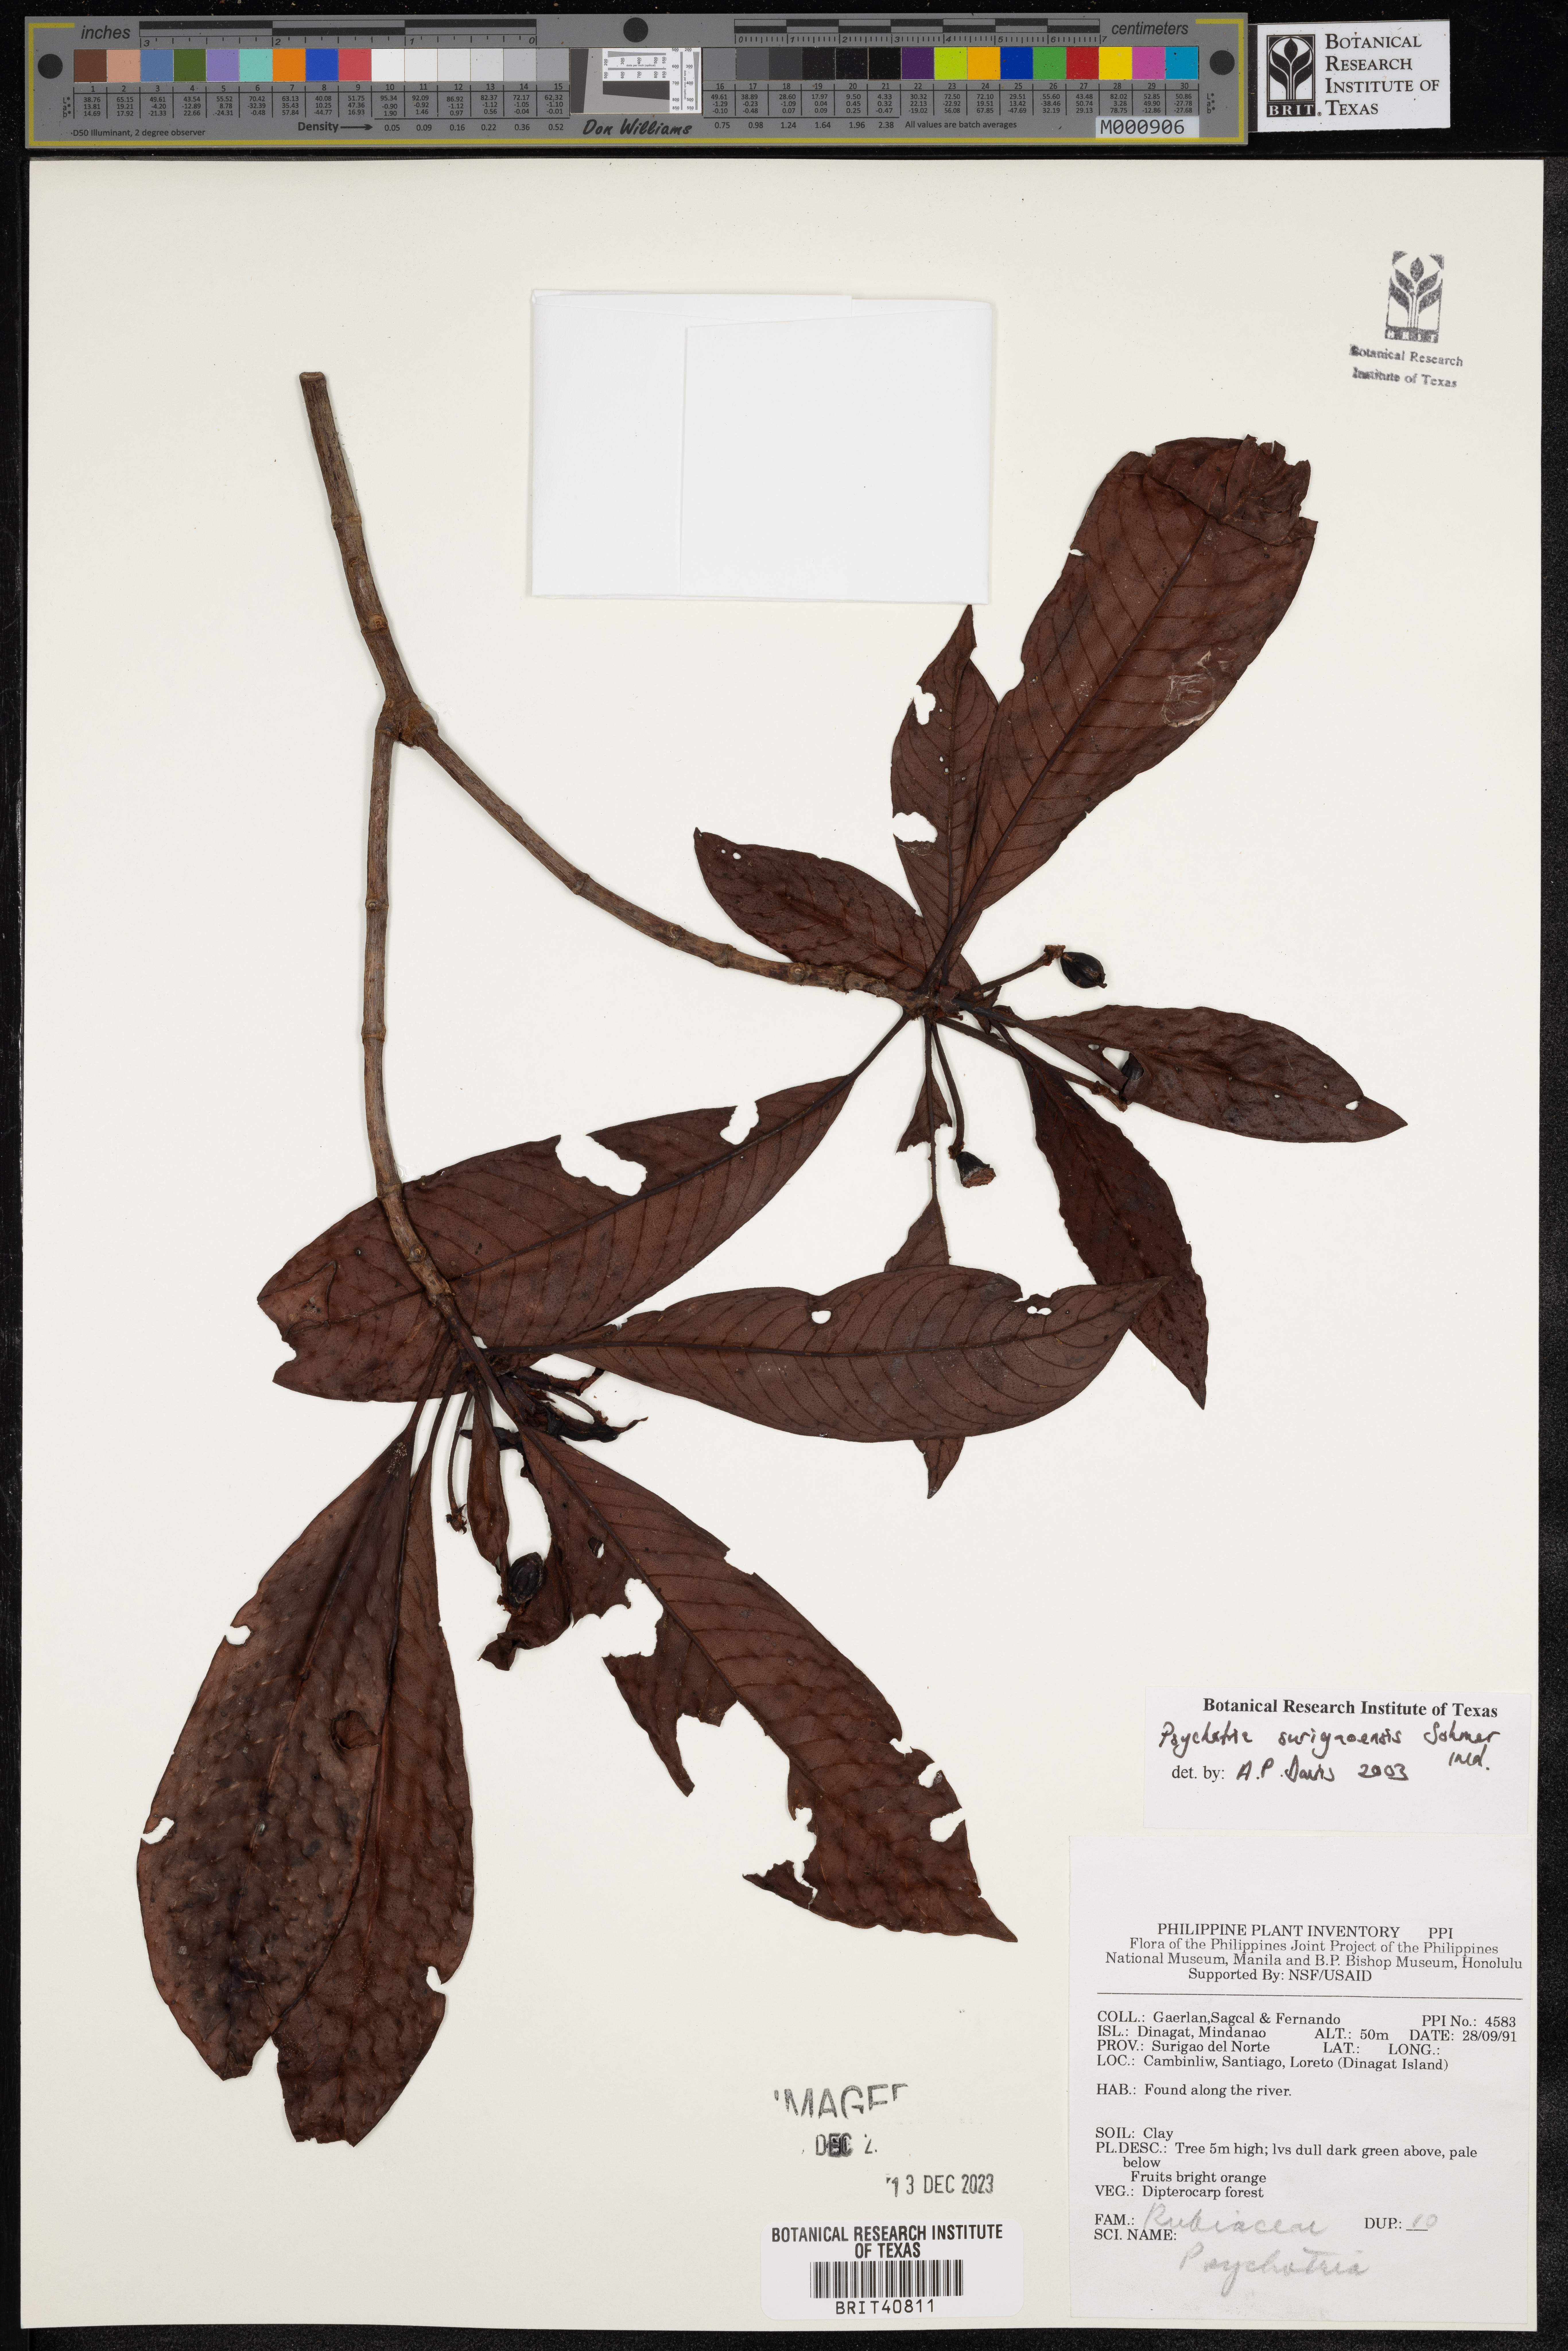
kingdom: Plantae
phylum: Tracheophyta
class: Magnoliopsida
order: Gentianales
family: Rubiaceae
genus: Psychotria
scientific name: Psychotria surigaoensis
